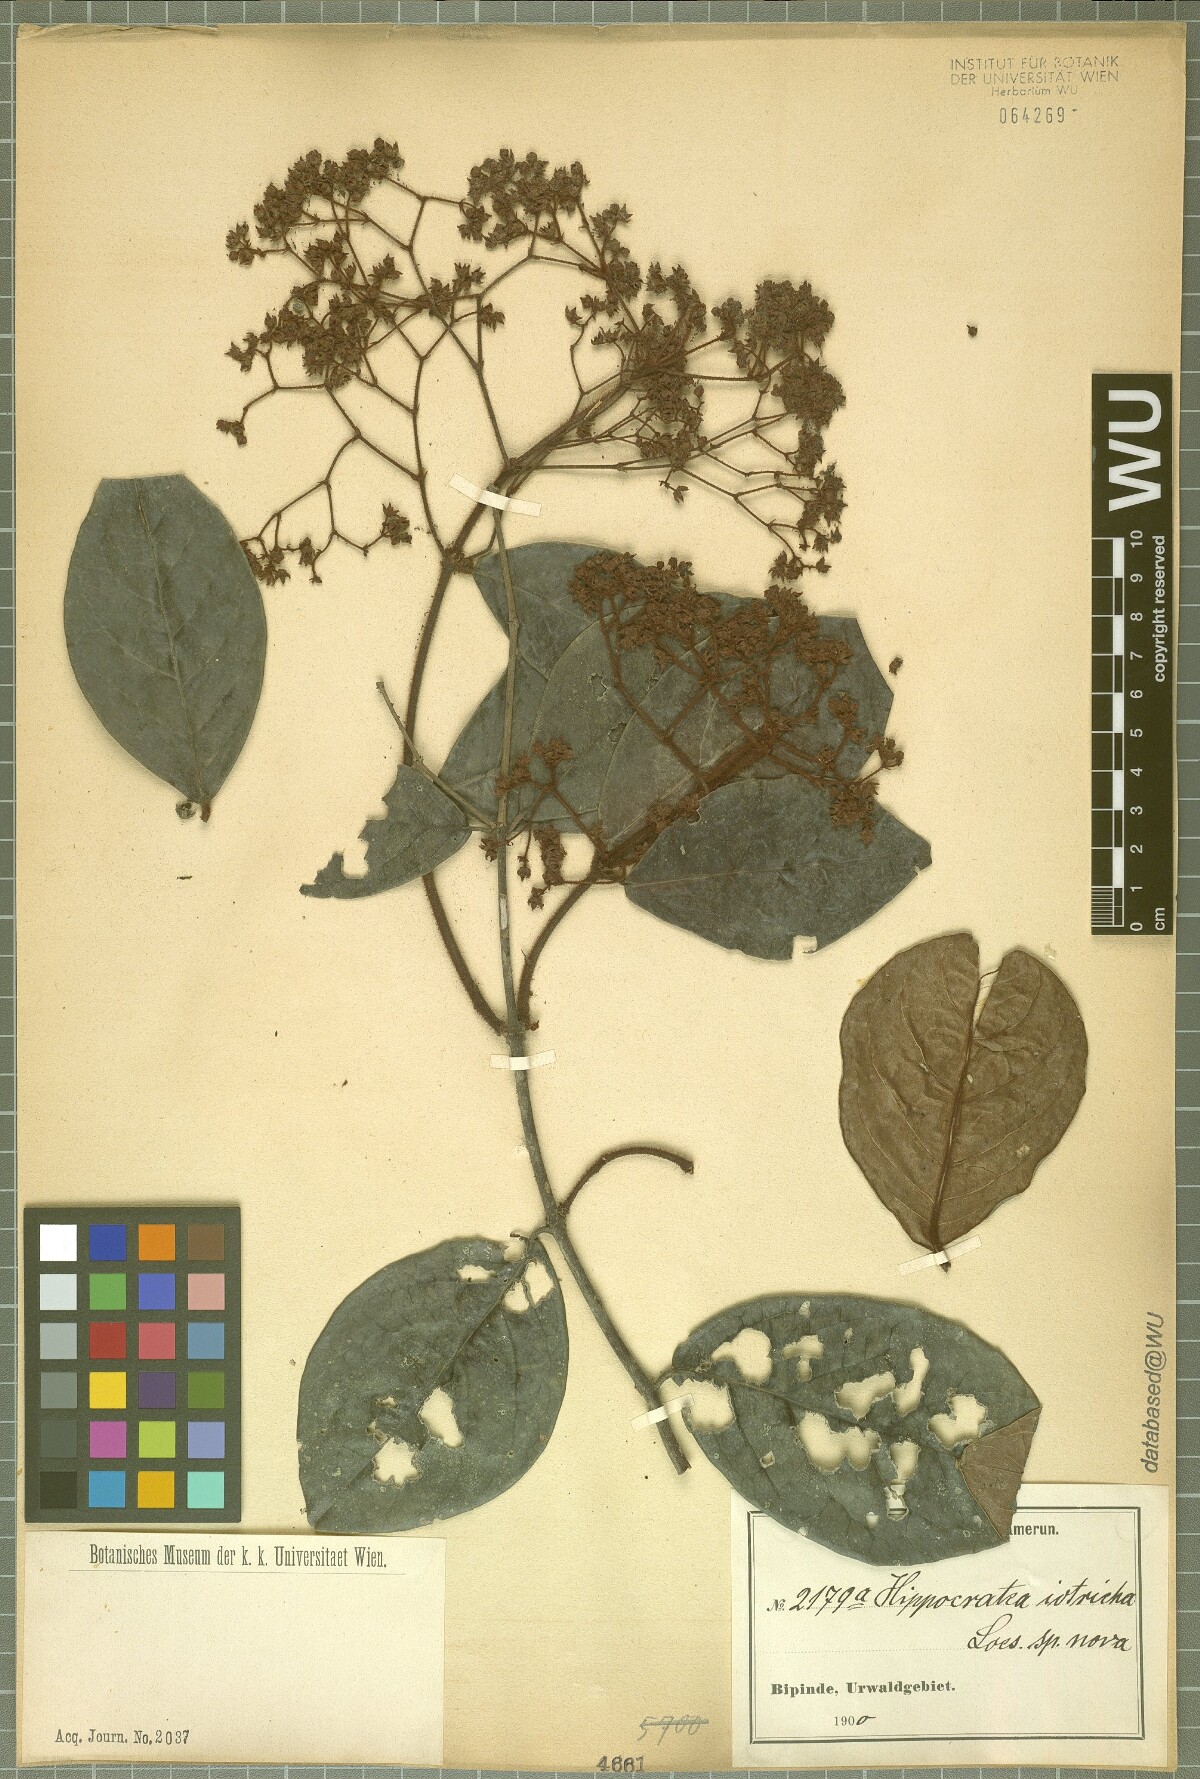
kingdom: Plantae
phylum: Tracheophyta
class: Magnoliopsida
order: Celastrales
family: Celastraceae
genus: Loeseneriella
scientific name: Loeseneriella iotricha
